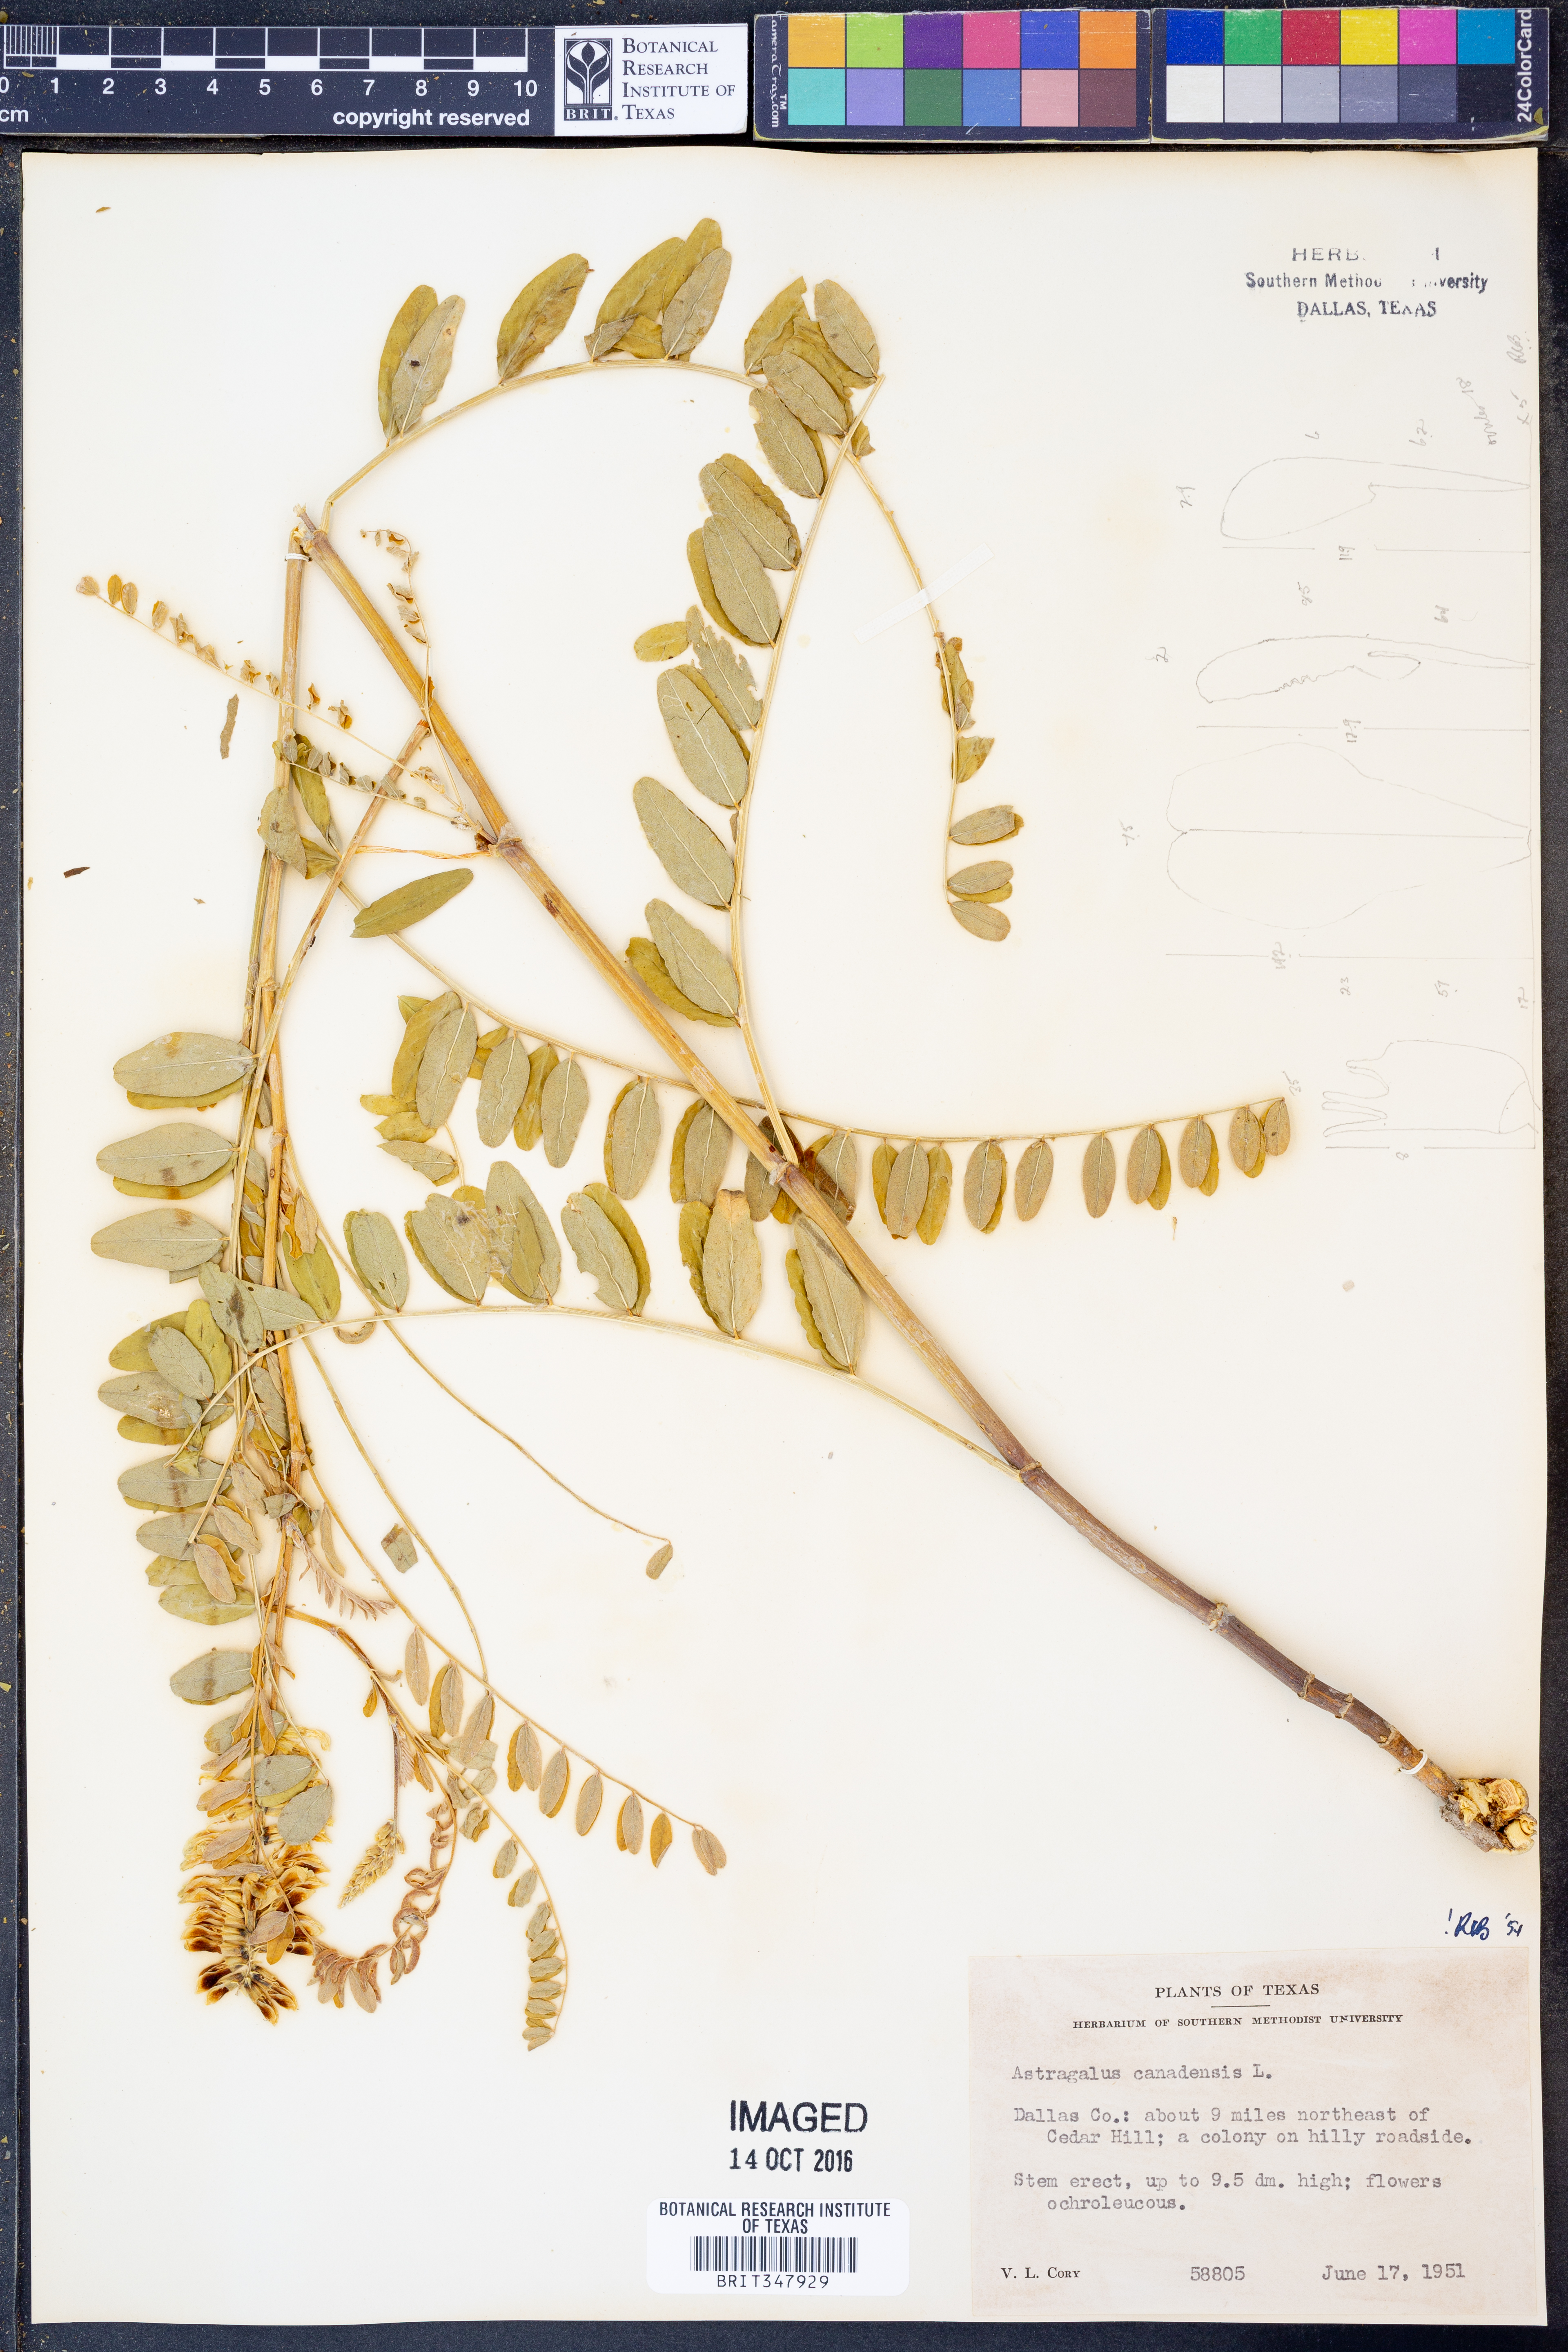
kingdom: Plantae
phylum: Tracheophyta
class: Magnoliopsida
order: Fabales
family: Fabaceae
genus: Astragalus
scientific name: Astragalus canadensis
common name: Canada milk-vetch
